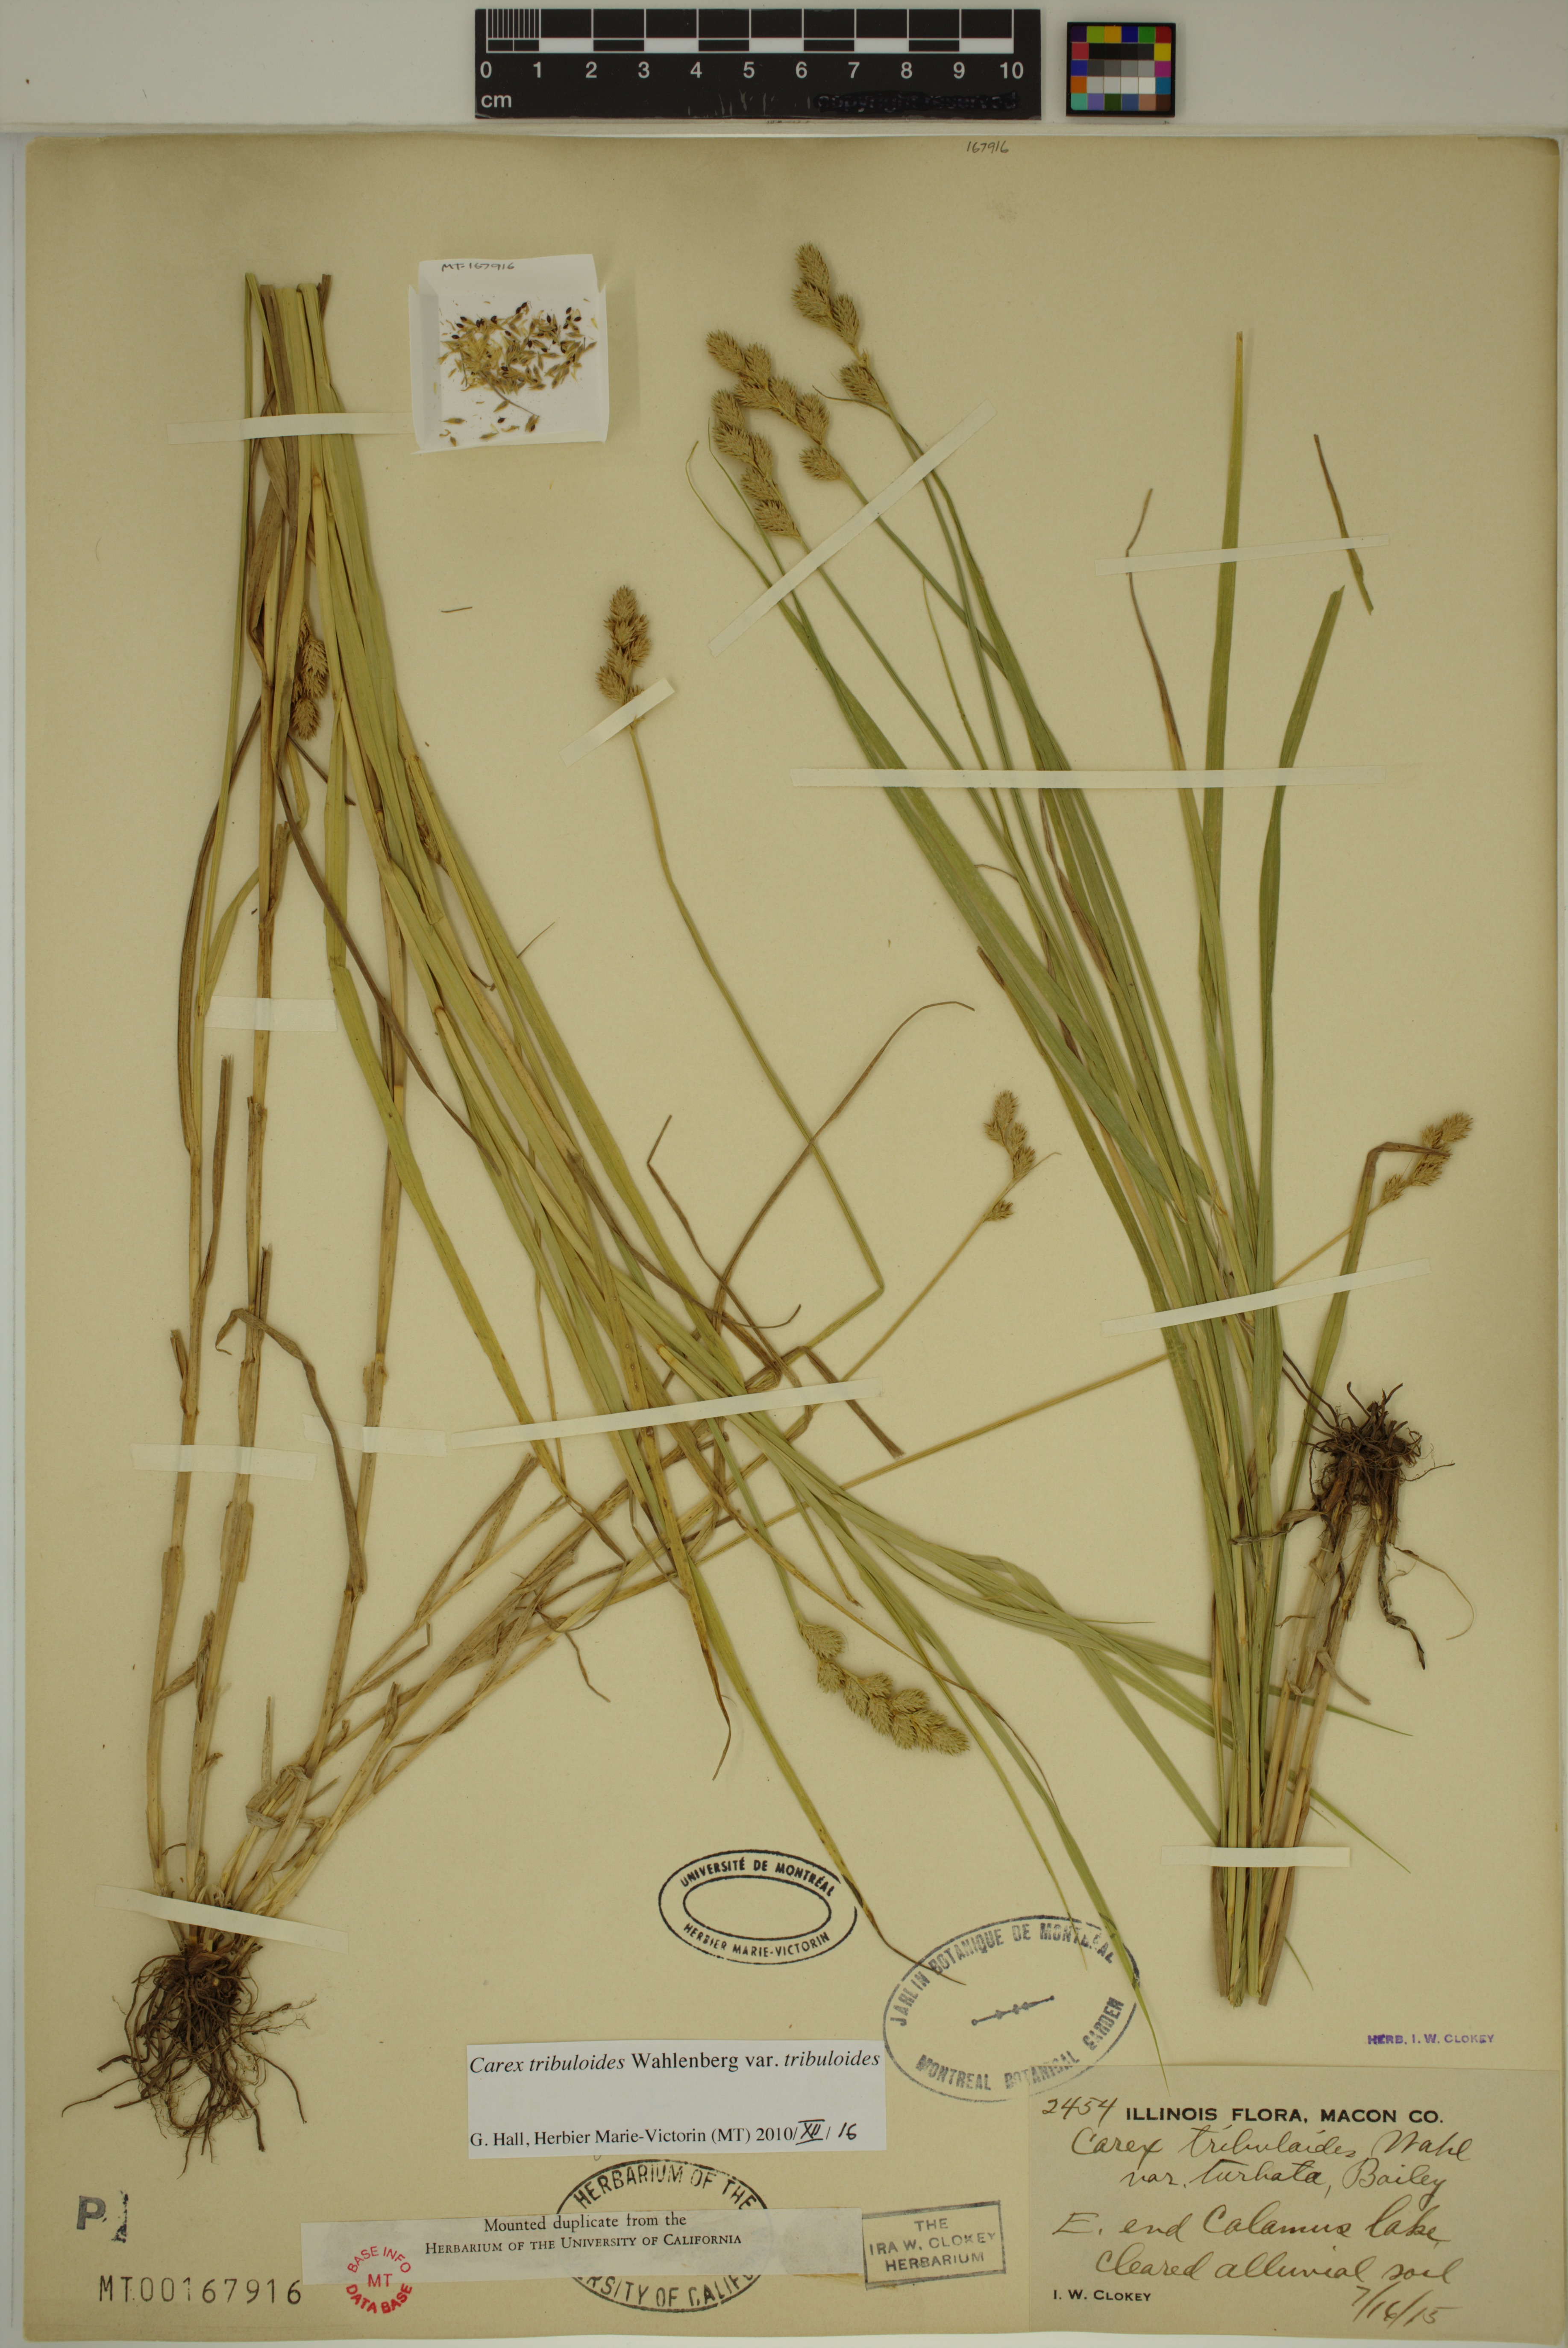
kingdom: Plantae
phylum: Tracheophyta
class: Liliopsida
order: Poales
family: Cyperaceae
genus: Carex
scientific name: Carex tribuloides
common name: Blunt broom sedge
